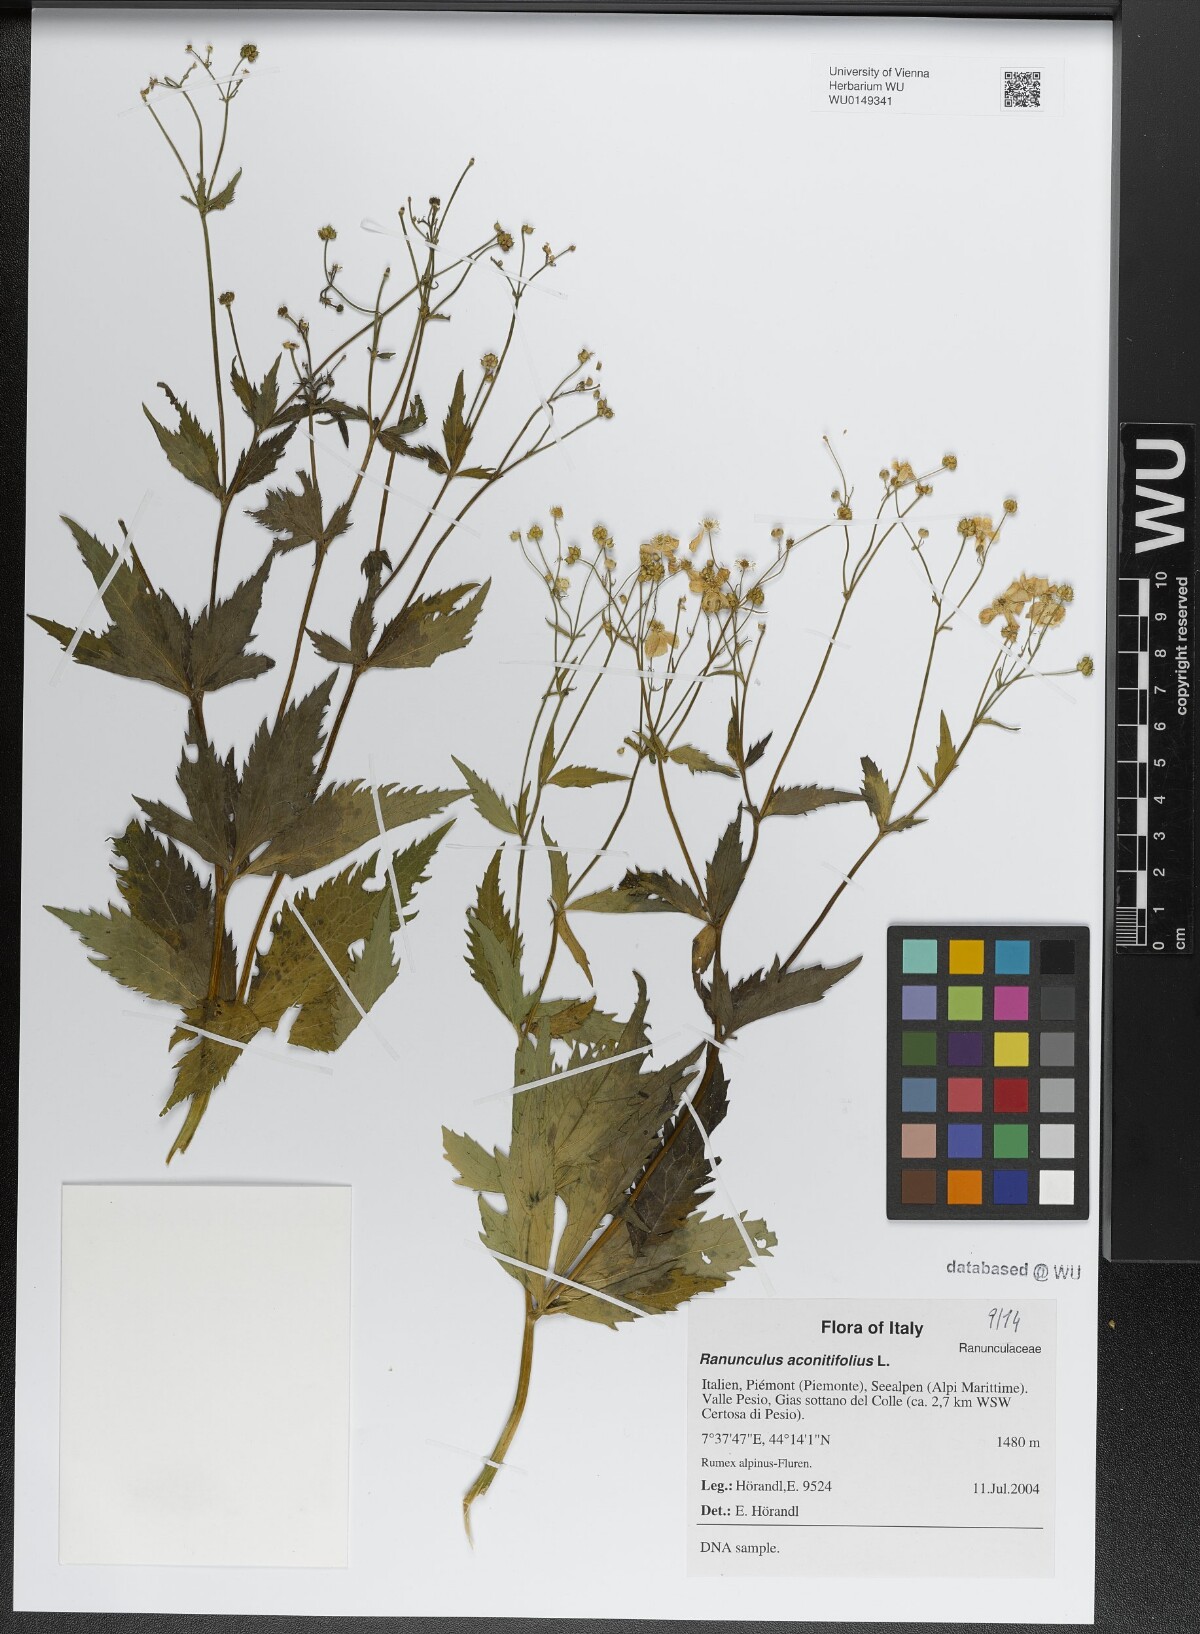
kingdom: Plantae
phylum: Tracheophyta
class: Magnoliopsida
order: Ranunculales
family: Ranunculaceae
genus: Ranunculus
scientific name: Ranunculus aconitifolius
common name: Aconite-leaved buttercup
